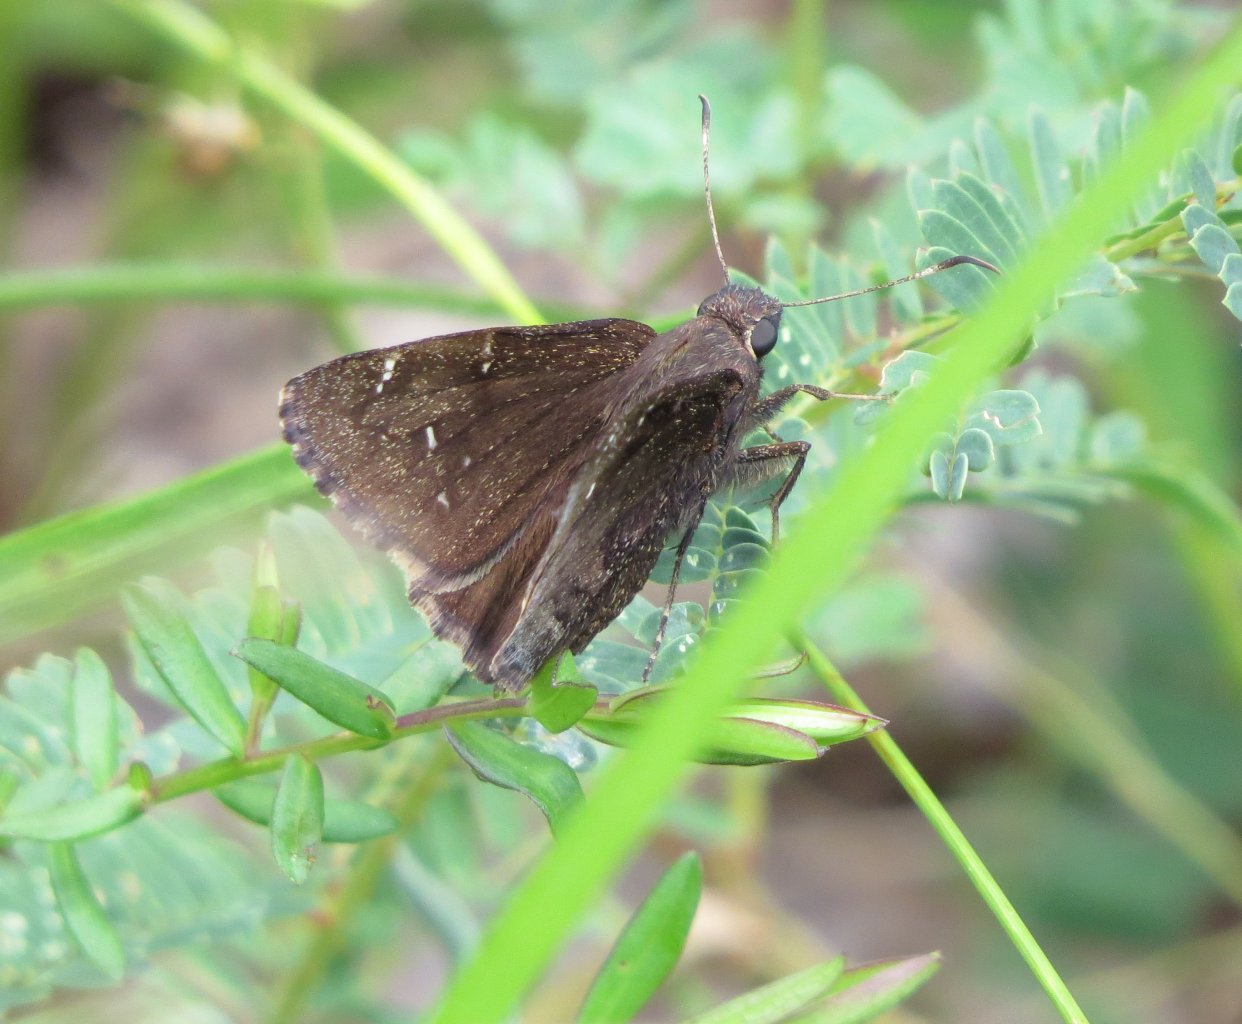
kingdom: Animalia
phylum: Arthropoda
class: Insecta
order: Lepidoptera
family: Hesperiidae
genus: Autochton
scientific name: Autochton
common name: Northern Cloudywing
